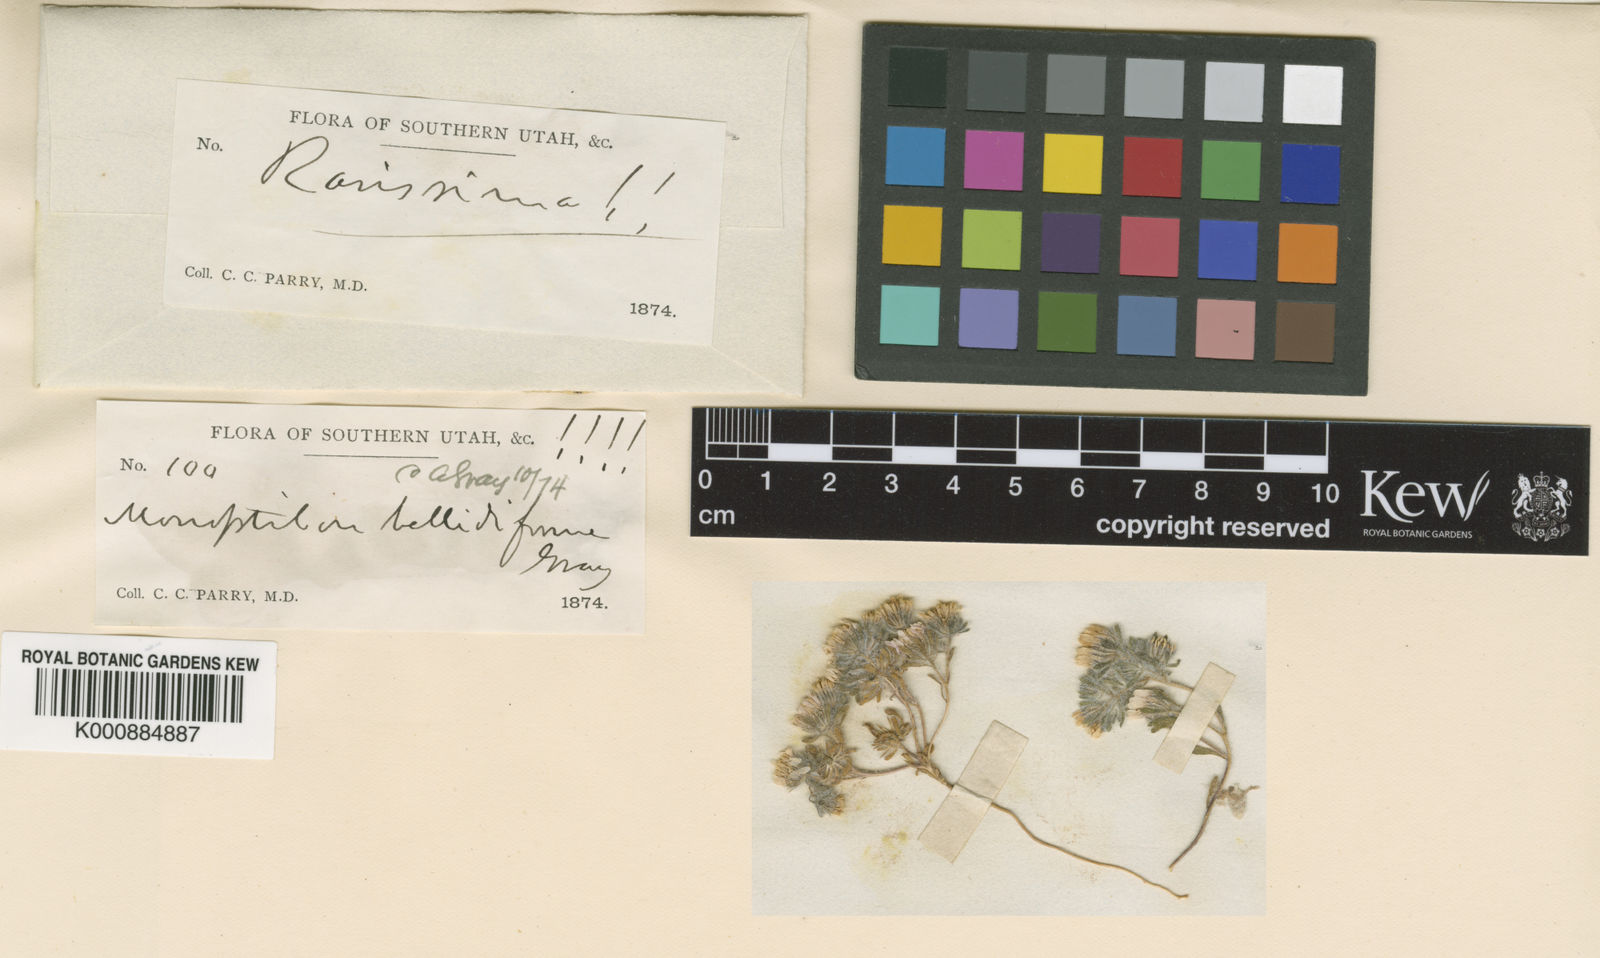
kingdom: Plantae
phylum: Tracheophyta
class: Magnoliopsida
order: Asterales
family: Asteraceae
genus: Monoptilon
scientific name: Monoptilon bellidiforme
